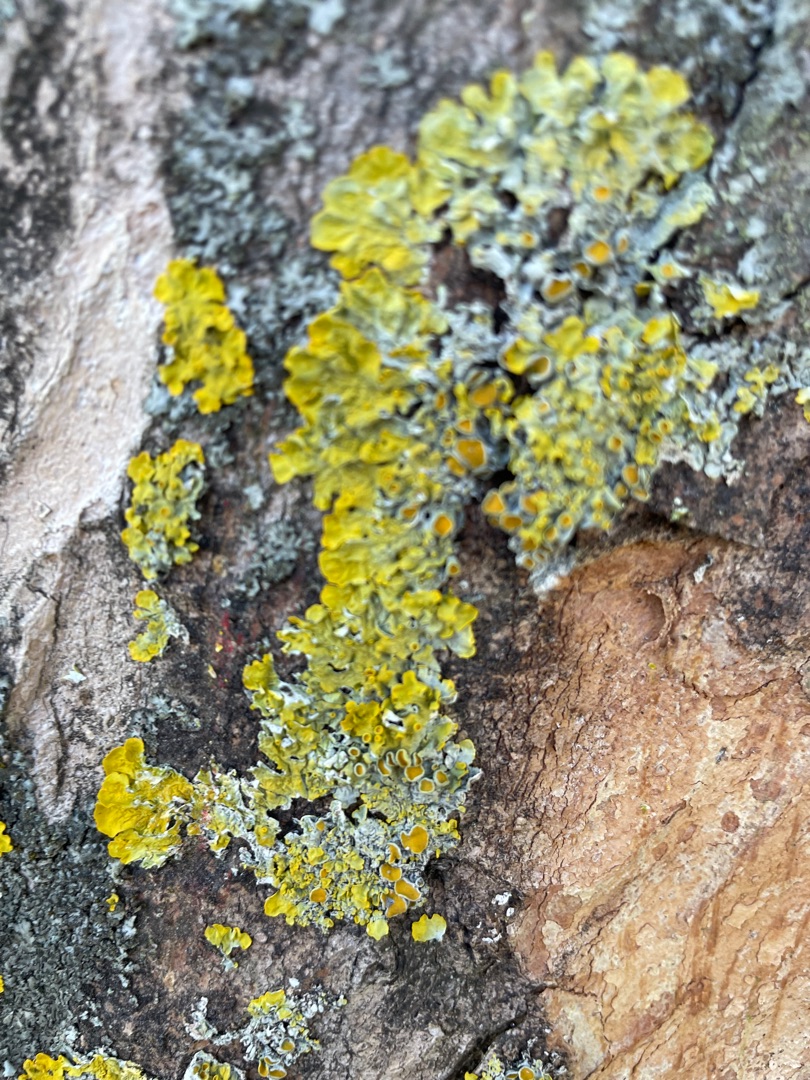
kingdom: Fungi
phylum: Ascomycota
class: Lecanoromycetes
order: Teloschistales
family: Teloschistaceae
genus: Xanthoria
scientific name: Xanthoria parietina
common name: Almindelig væggelav
